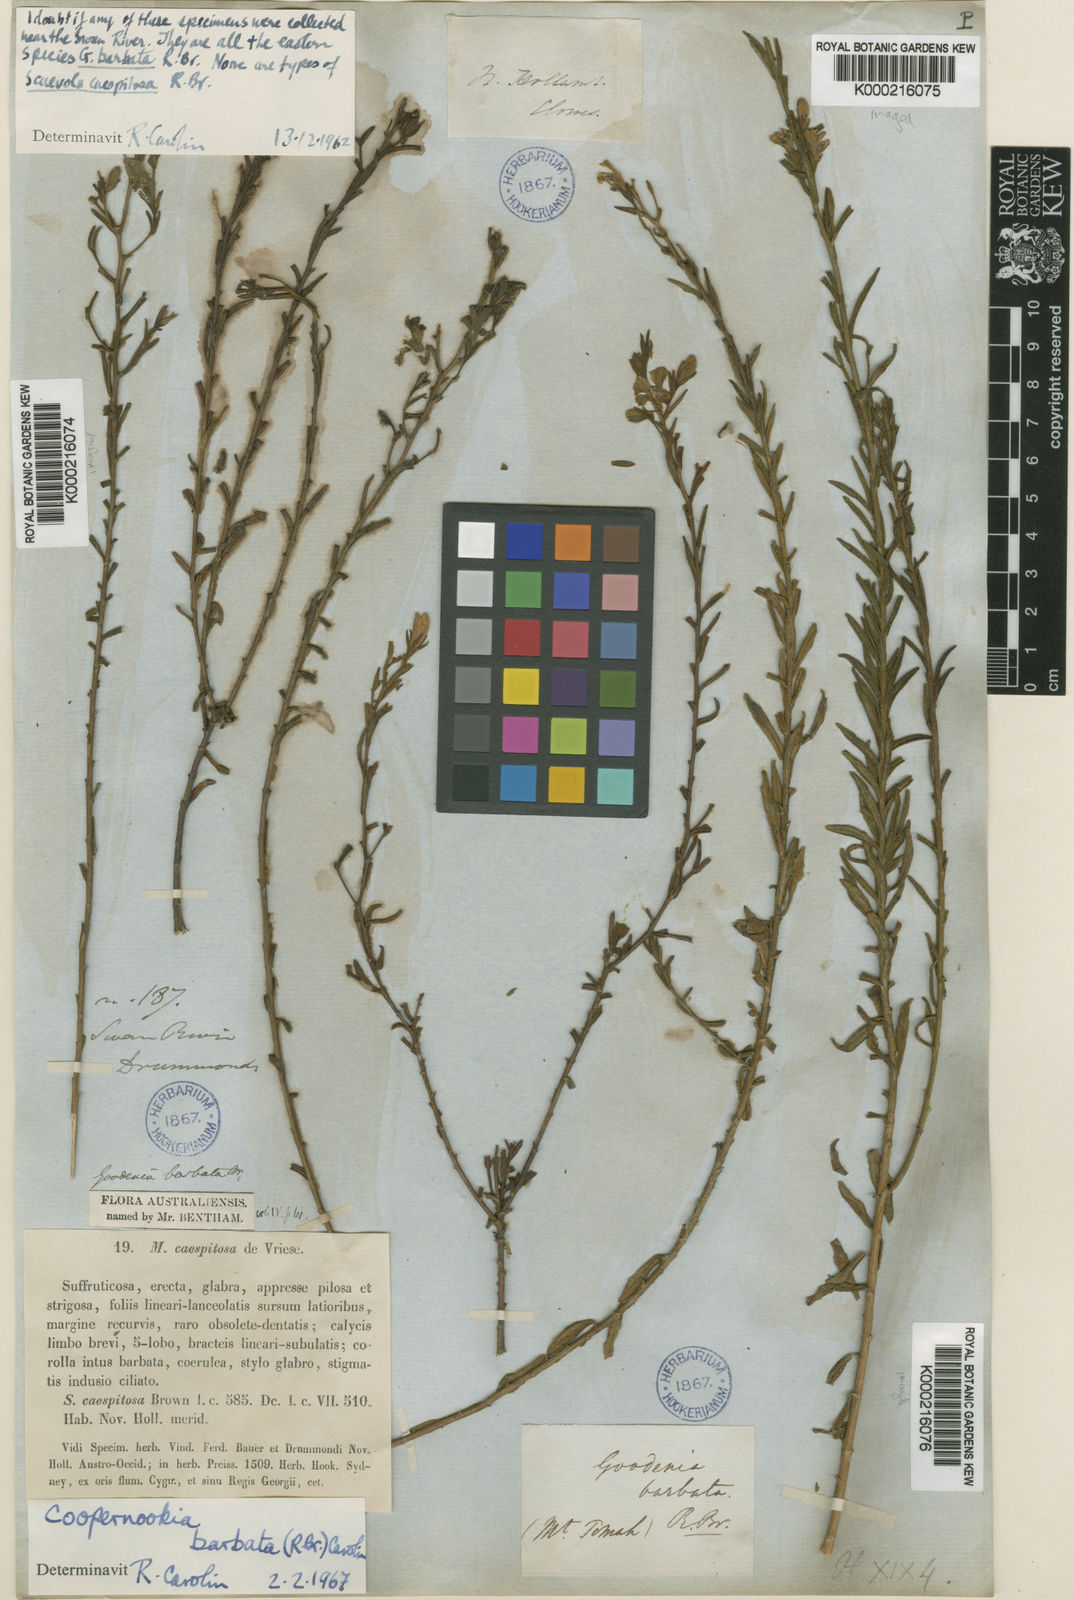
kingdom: Plantae
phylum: Tracheophyta
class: Magnoliopsida
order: Asterales
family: Goodeniaceae
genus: Goodenia
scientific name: Goodenia barbata
